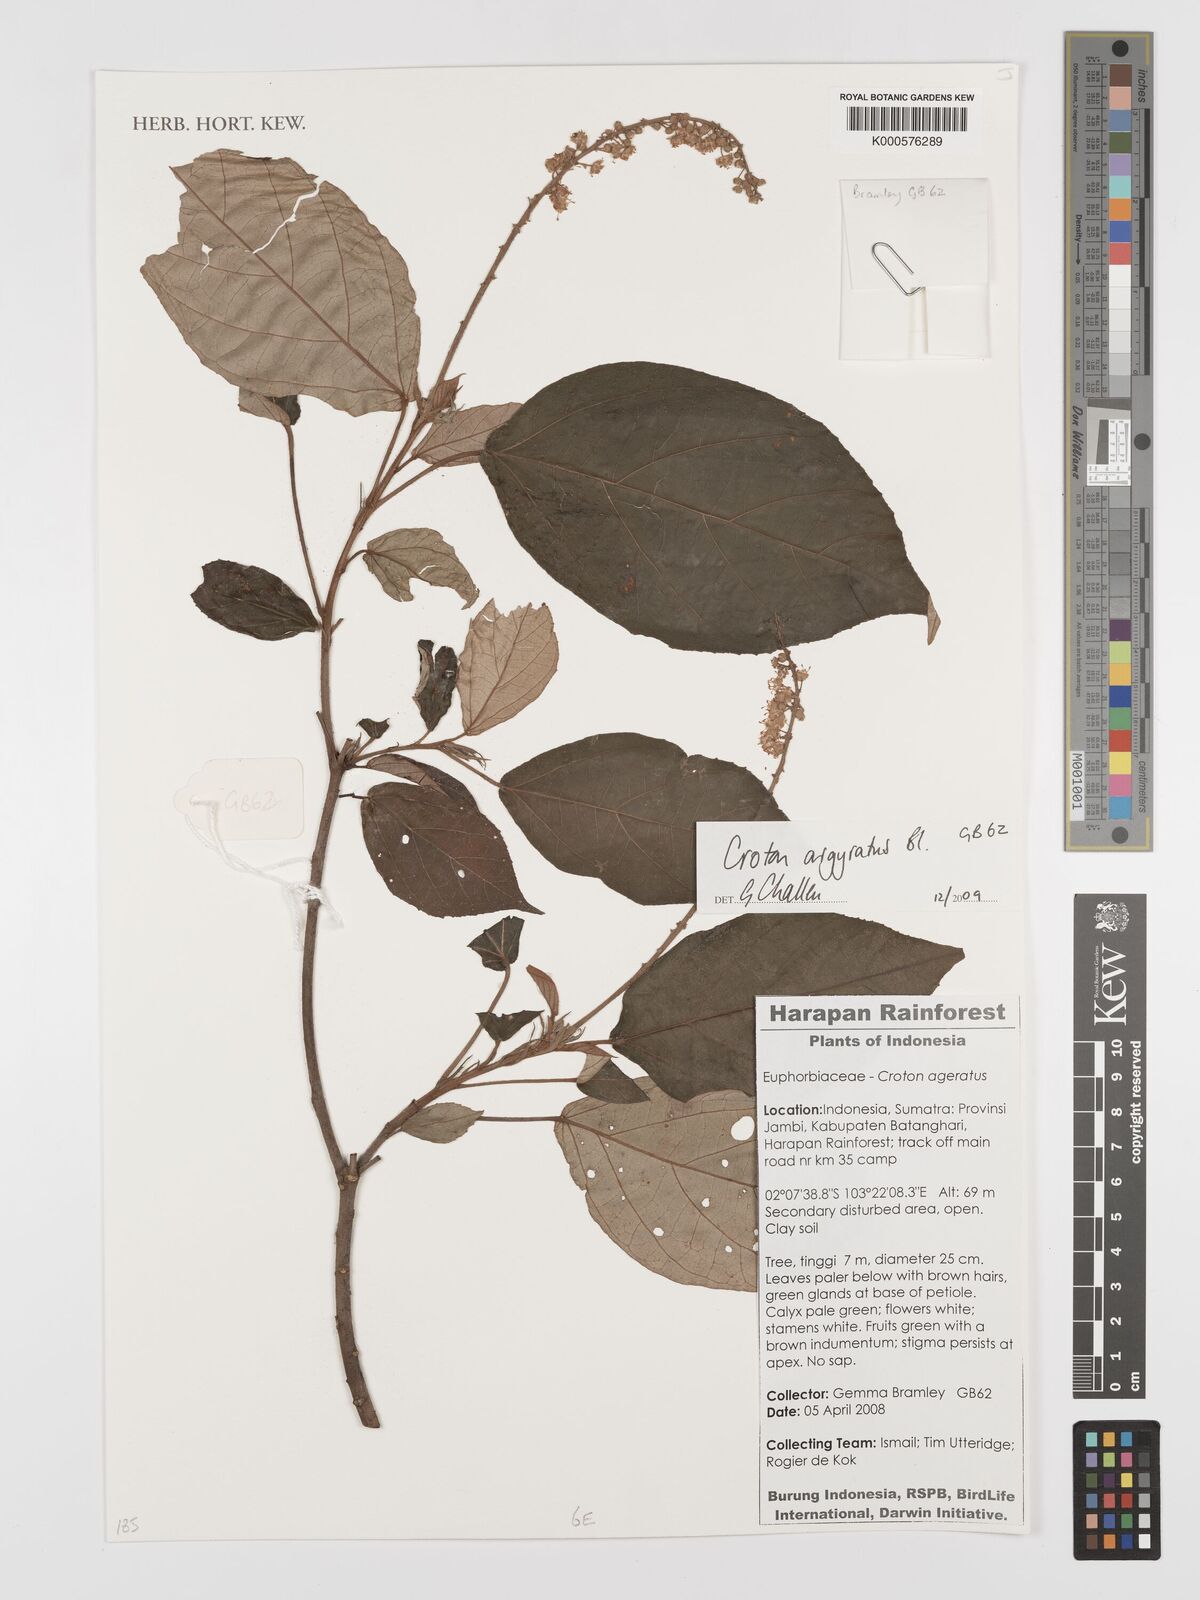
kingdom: Plantae
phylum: Tracheophyta
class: Magnoliopsida
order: Malpighiales
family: Euphorbiaceae
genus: Croton
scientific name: Croton argyratus
